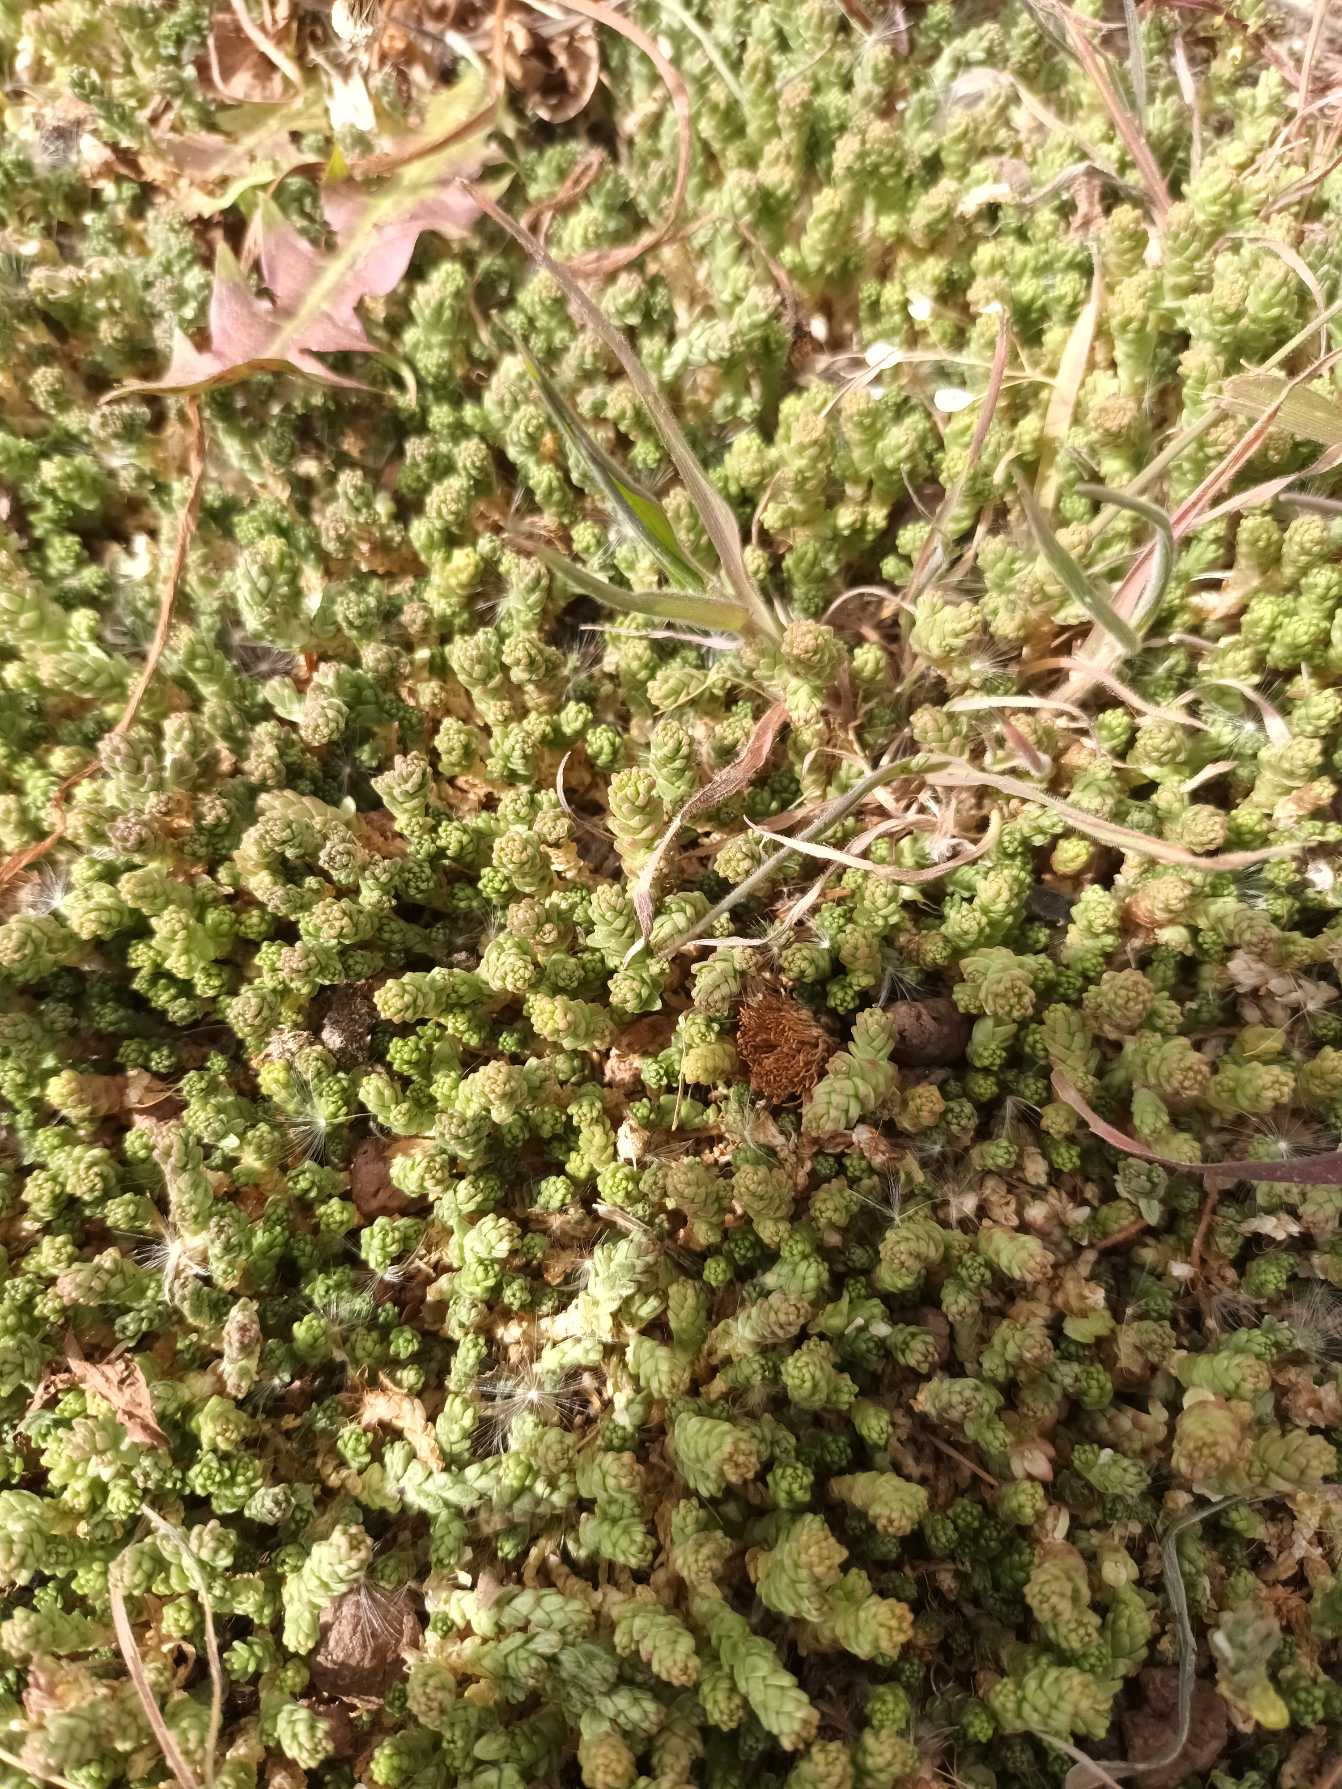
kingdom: Plantae
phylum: Tracheophyta
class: Magnoliopsida
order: Saxifragales
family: Crassulaceae
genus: Sedum
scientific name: Sedum acre
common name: Bidende stenurt
